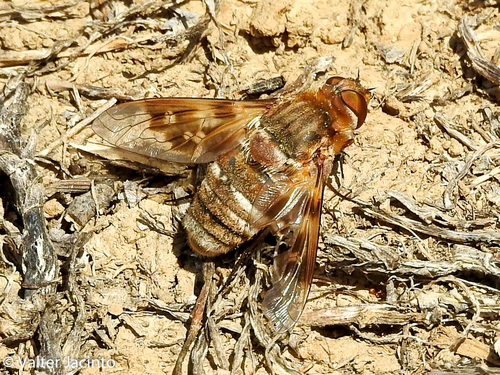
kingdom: Animalia
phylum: Arthropoda
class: Insecta
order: Diptera
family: Bombyliidae
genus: Thyridanthrax
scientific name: Thyridanthrax polyphemus
